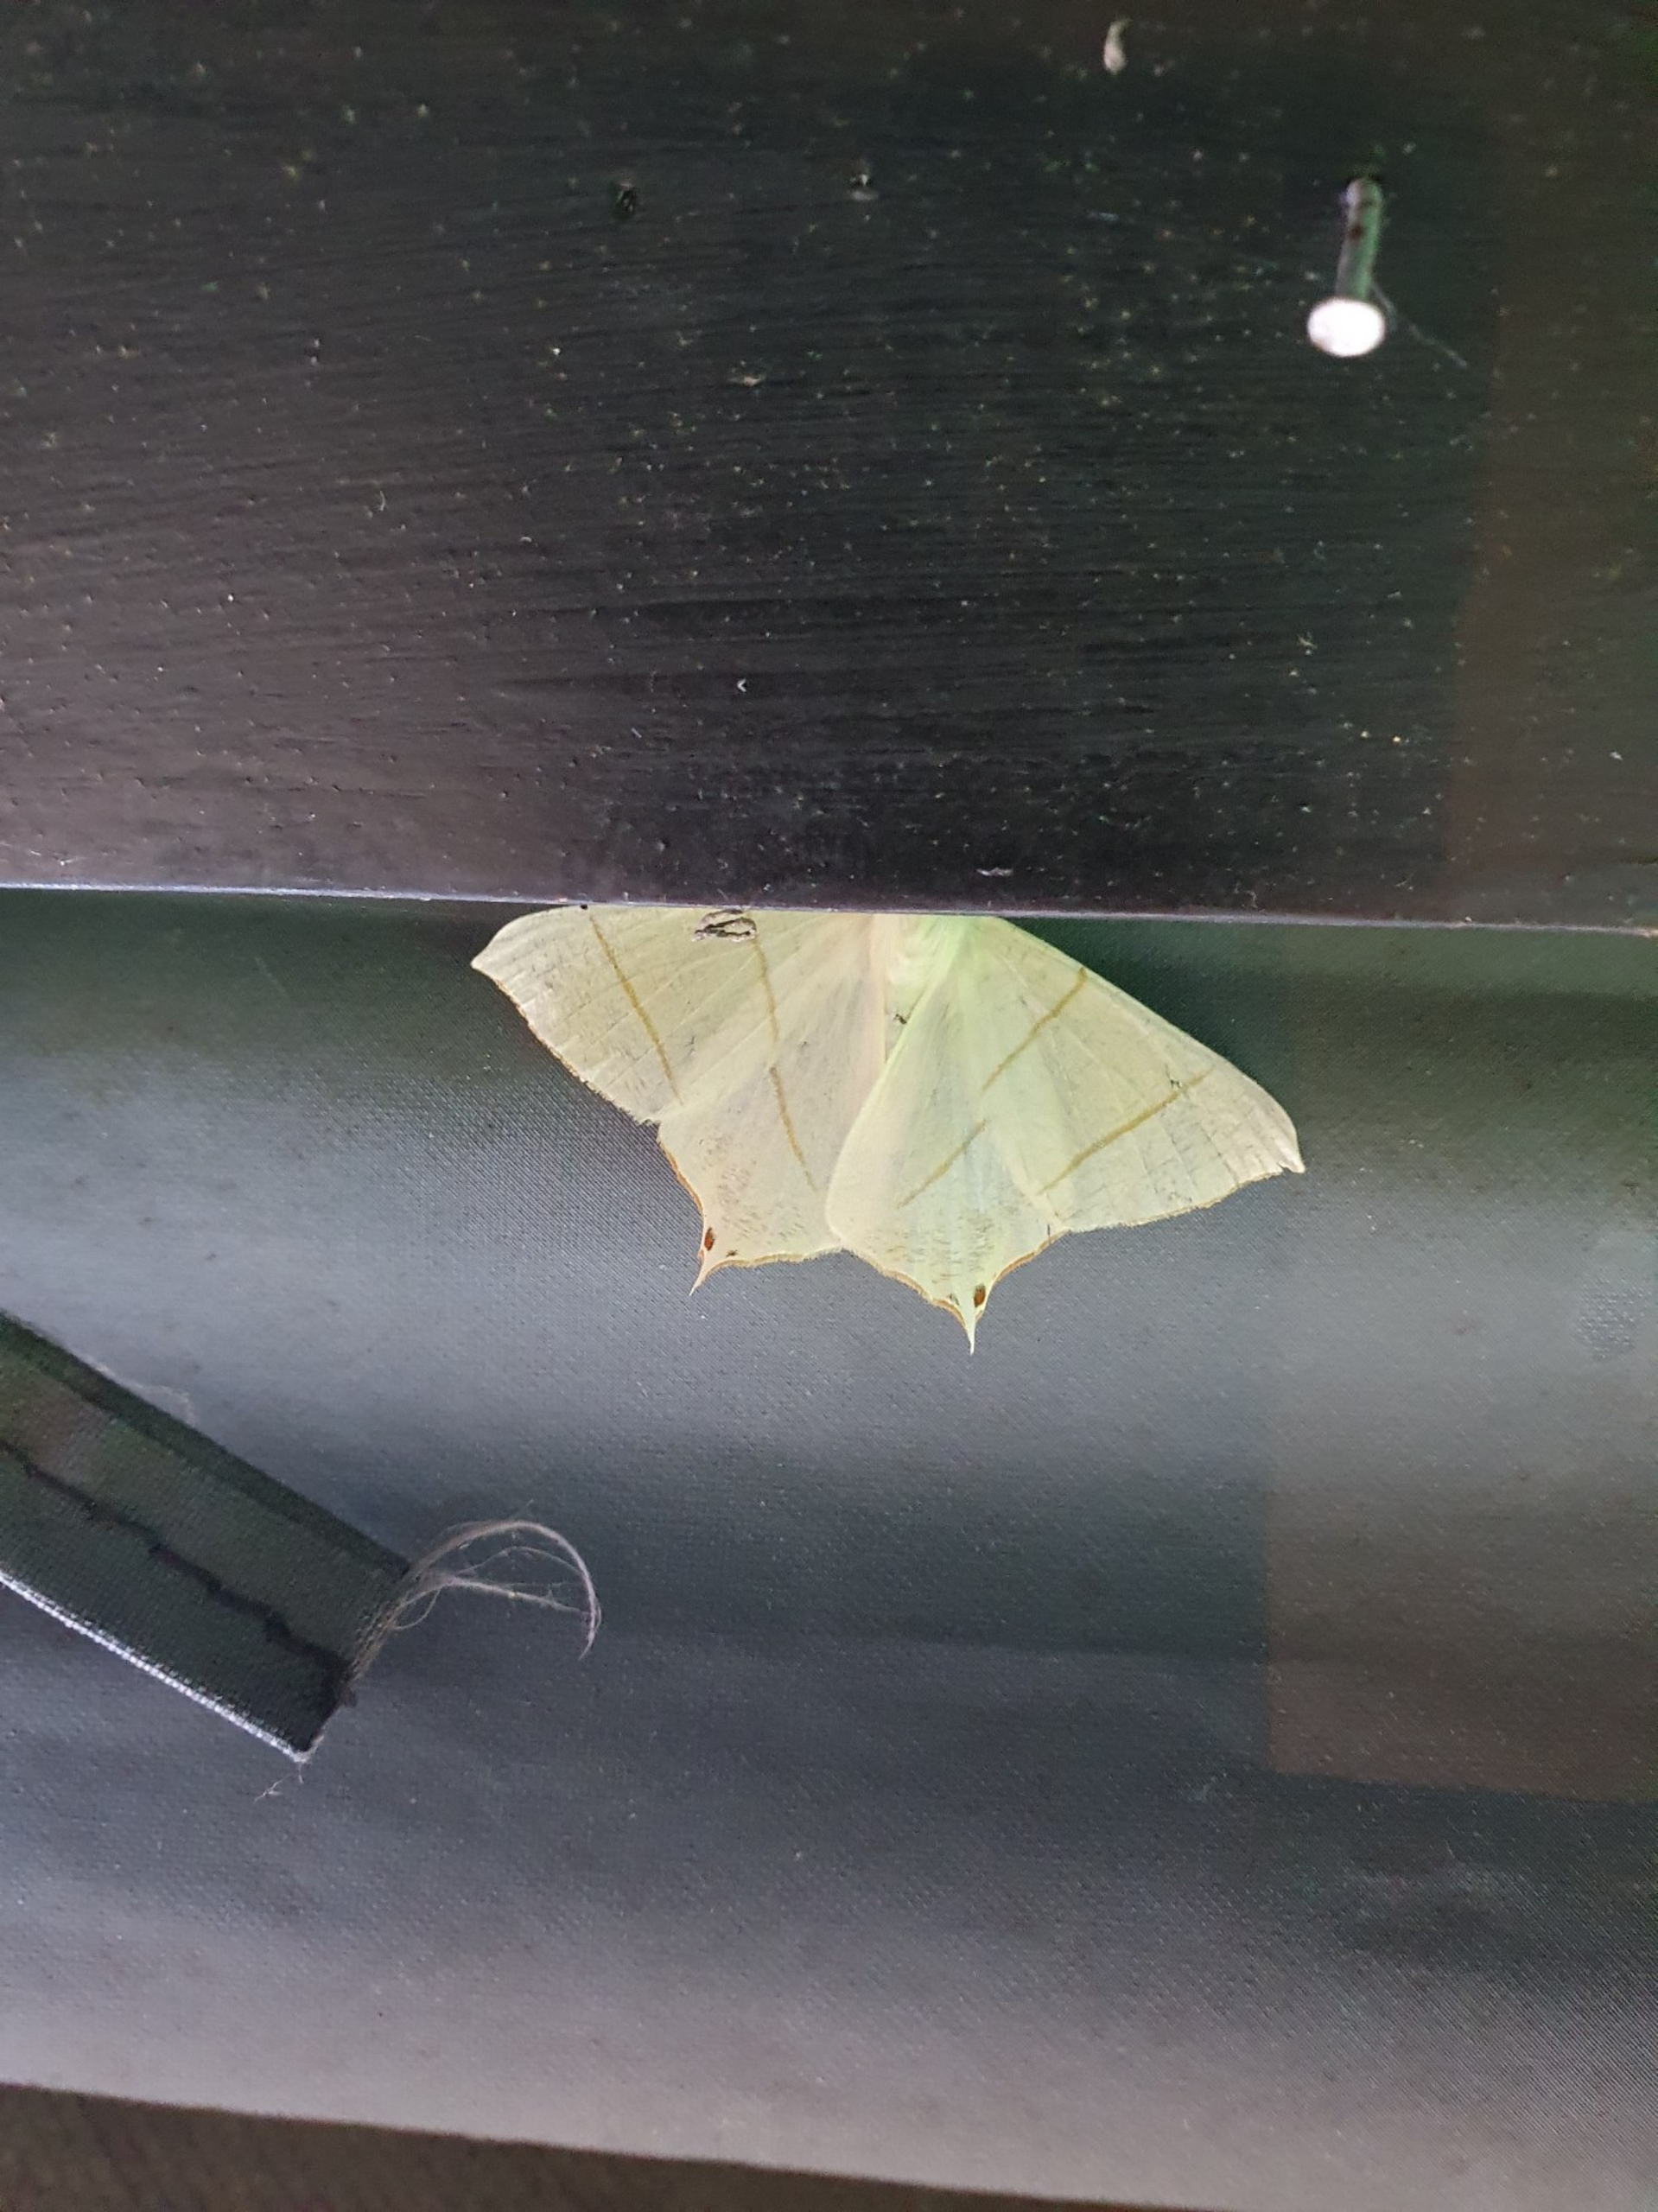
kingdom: Animalia
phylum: Arthropoda
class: Insecta
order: Lepidoptera
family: Geometridae
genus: Ourapteryx
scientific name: Ourapteryx sambucaria
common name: Natsvalehale
